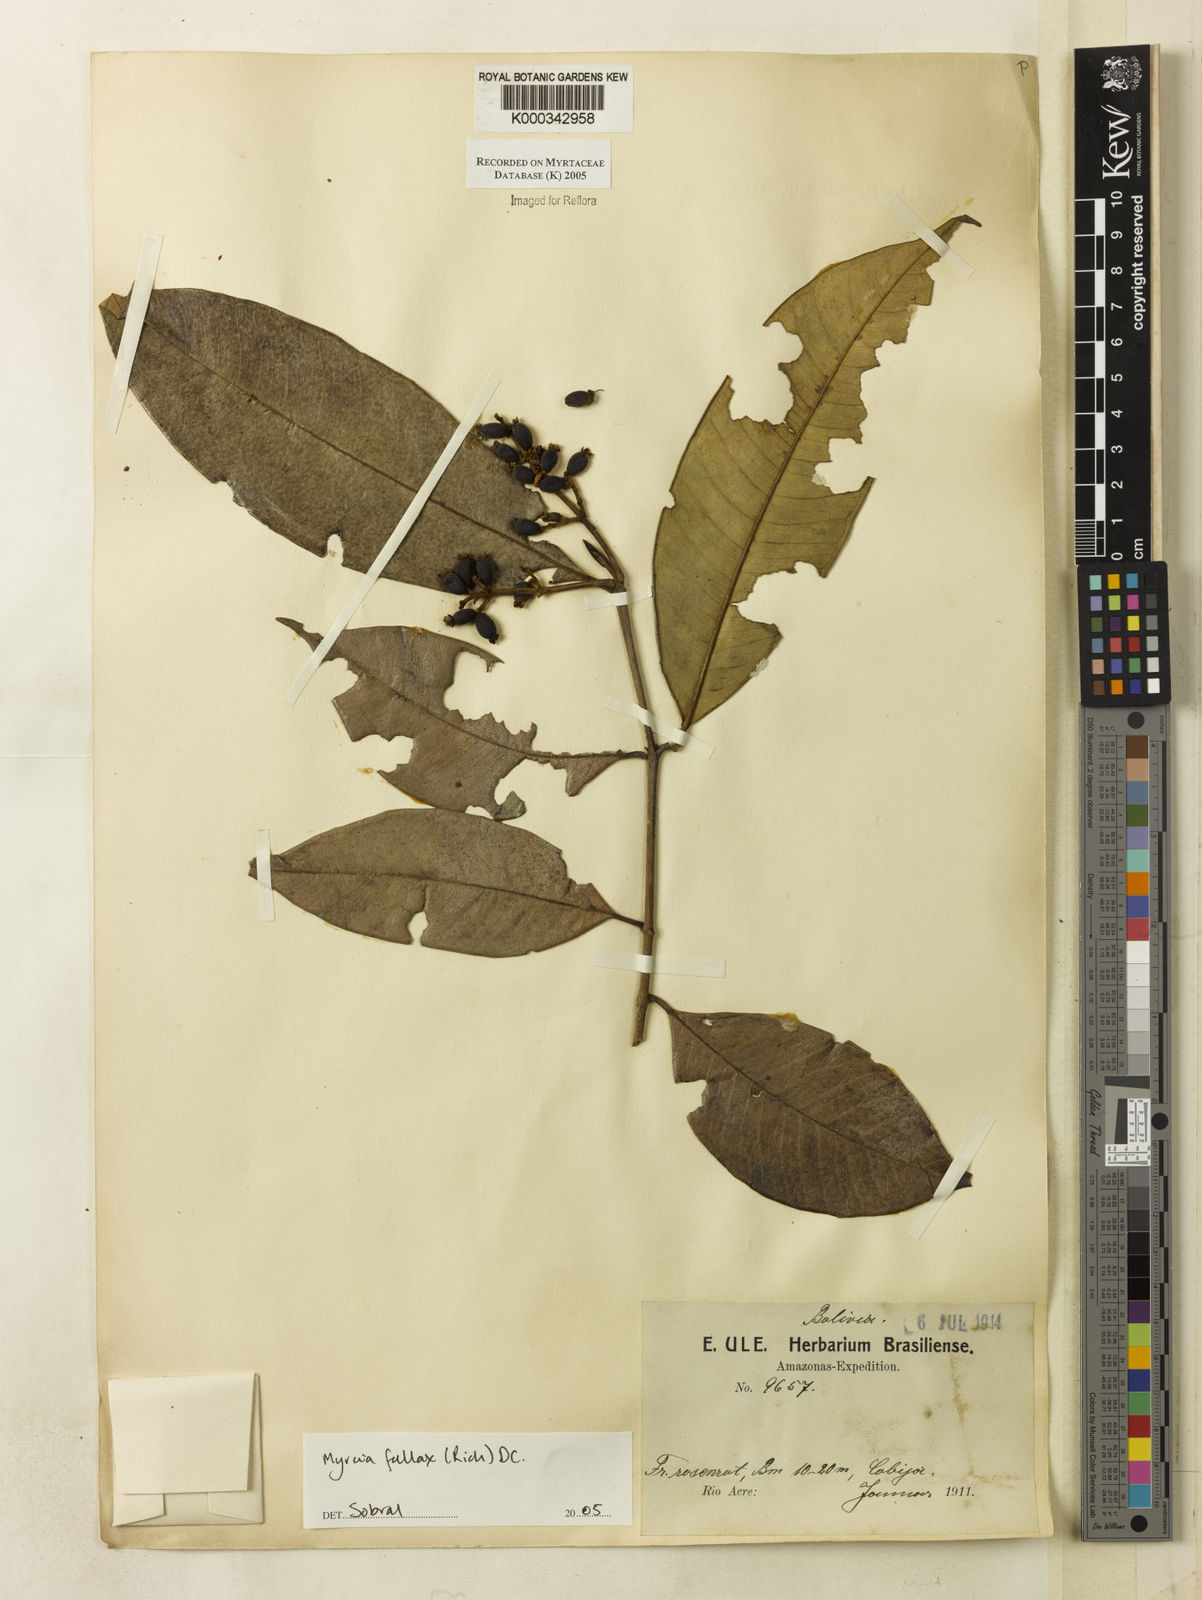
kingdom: Plantae
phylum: Tracheophyta
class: Magnoliopsida
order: Myrtales
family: Myrtaceae
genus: Myrcia
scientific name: Myrcia splendens
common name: Surinam cherry
